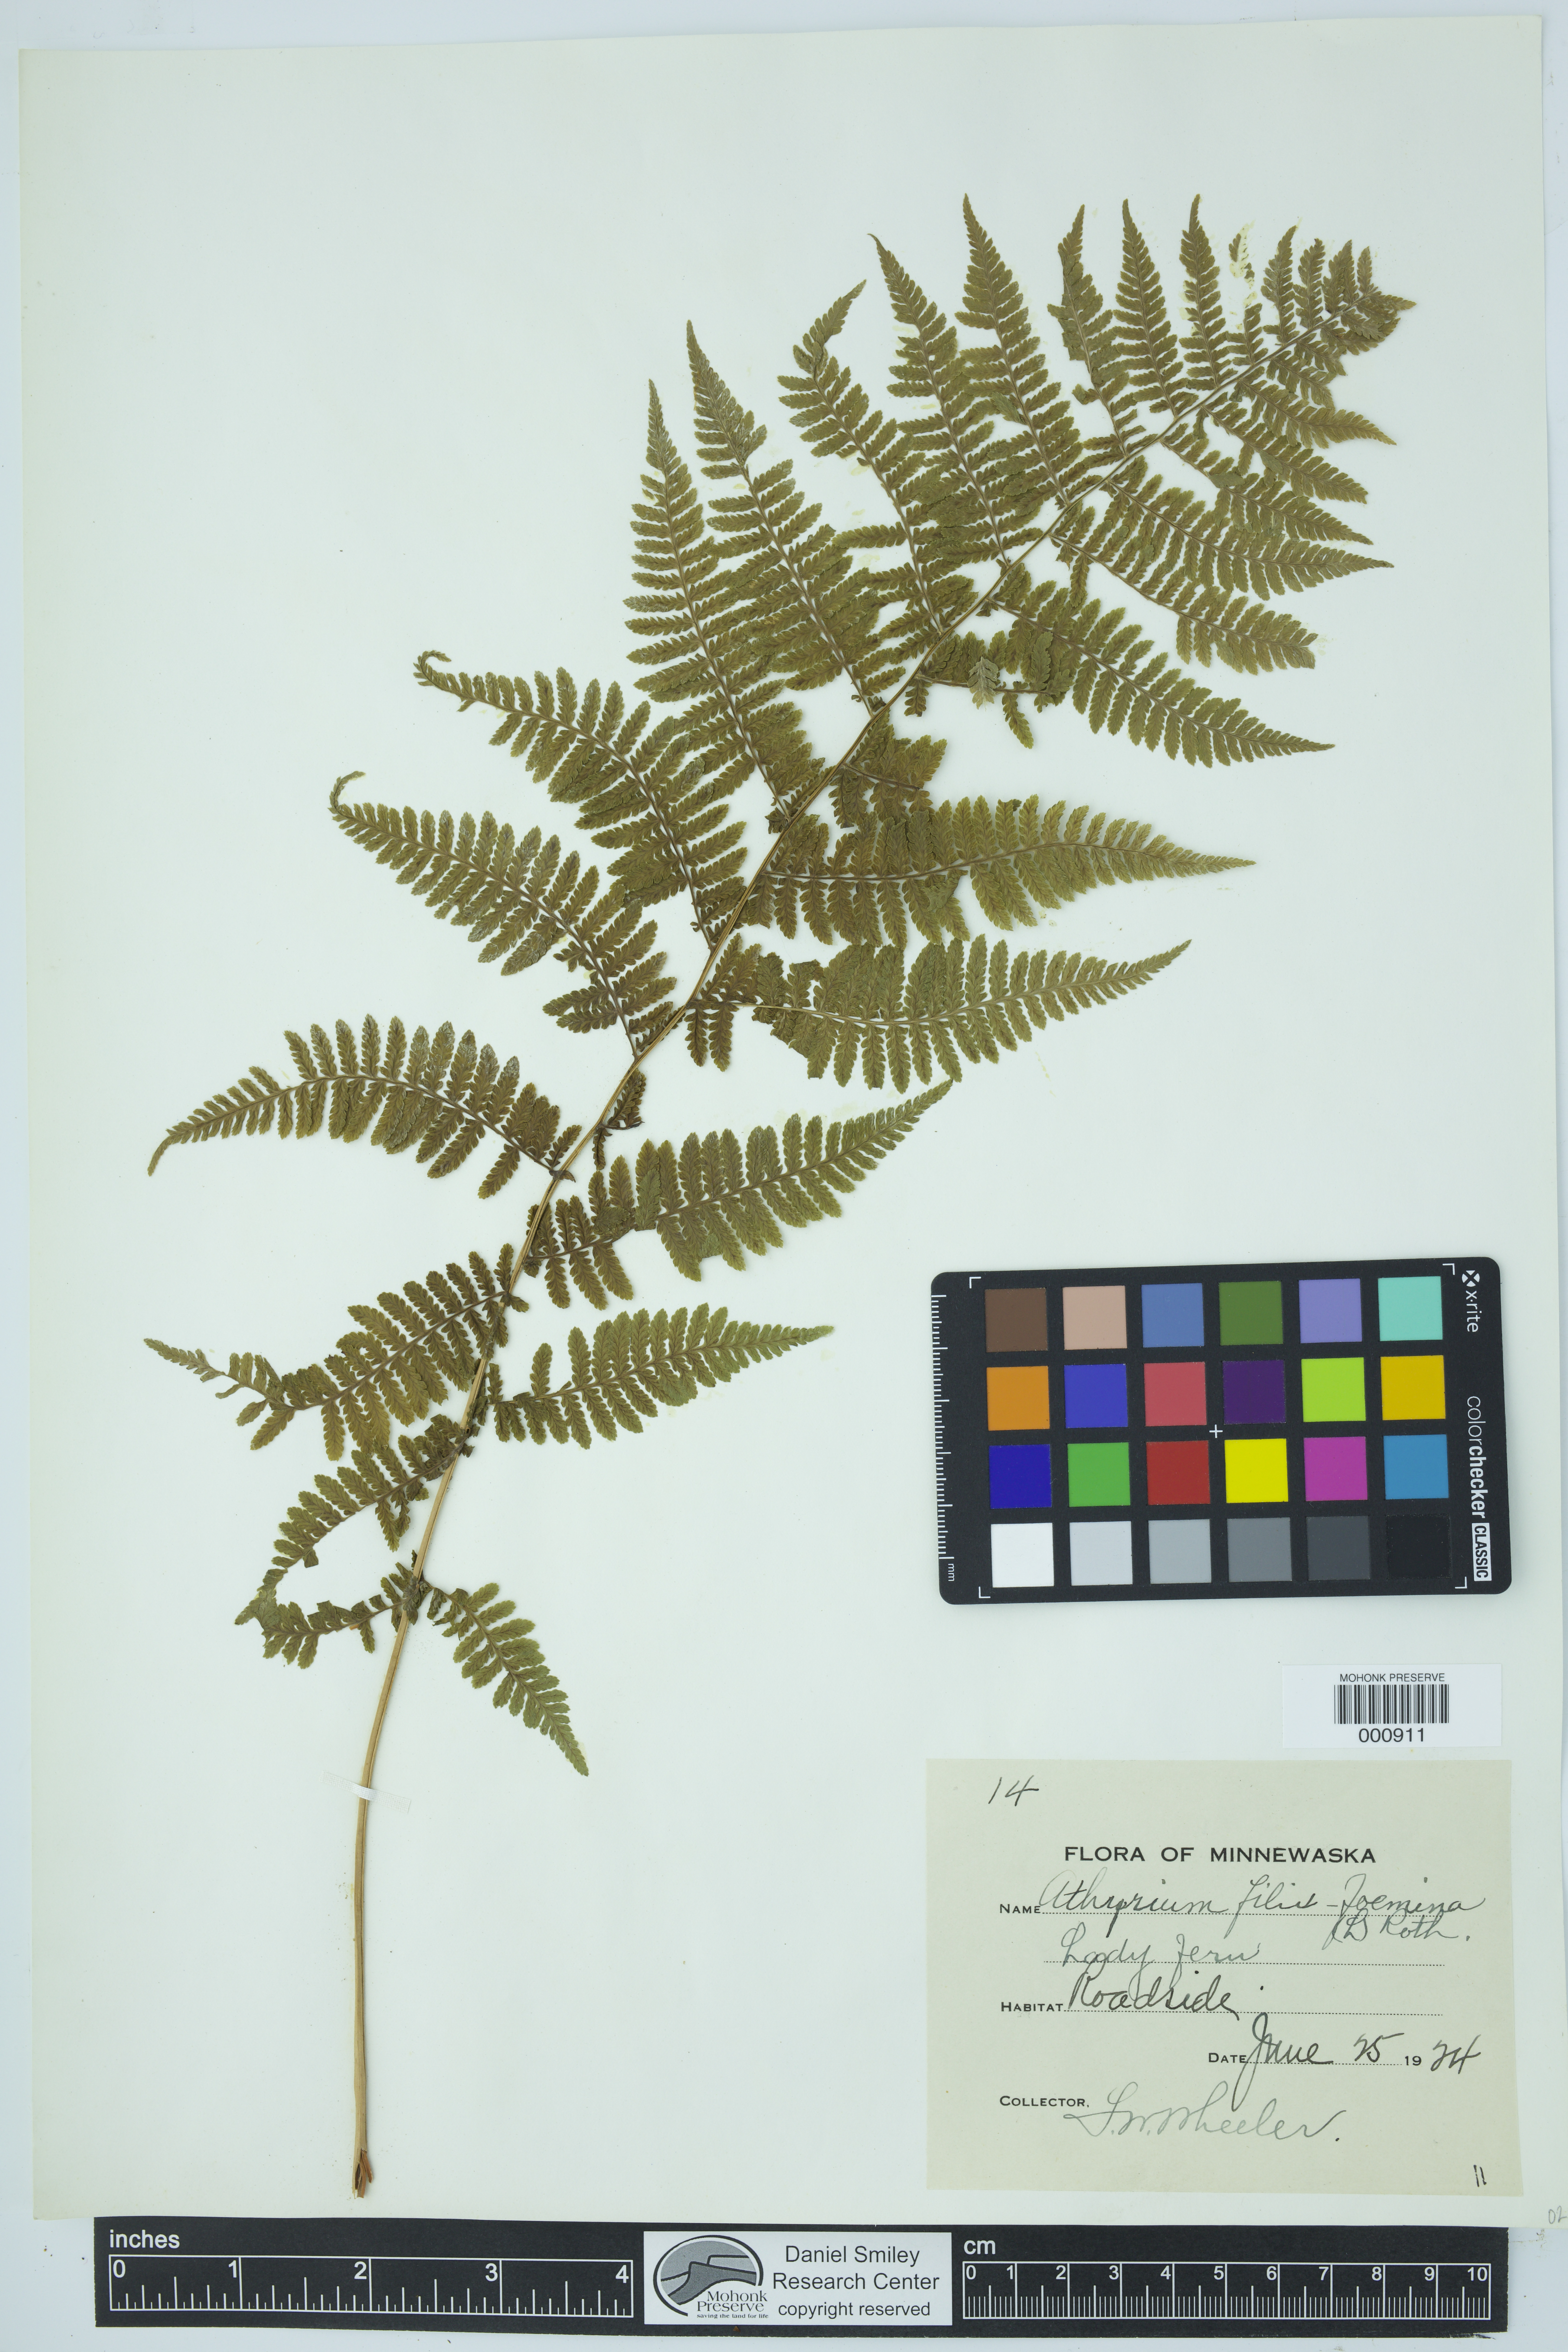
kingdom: Plantae
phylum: Tracheophyta
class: Polypodiopsida
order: Polypodiales
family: Athyriaceae
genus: Athyrium
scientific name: Athyrium filix-femina
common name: Lady fern
